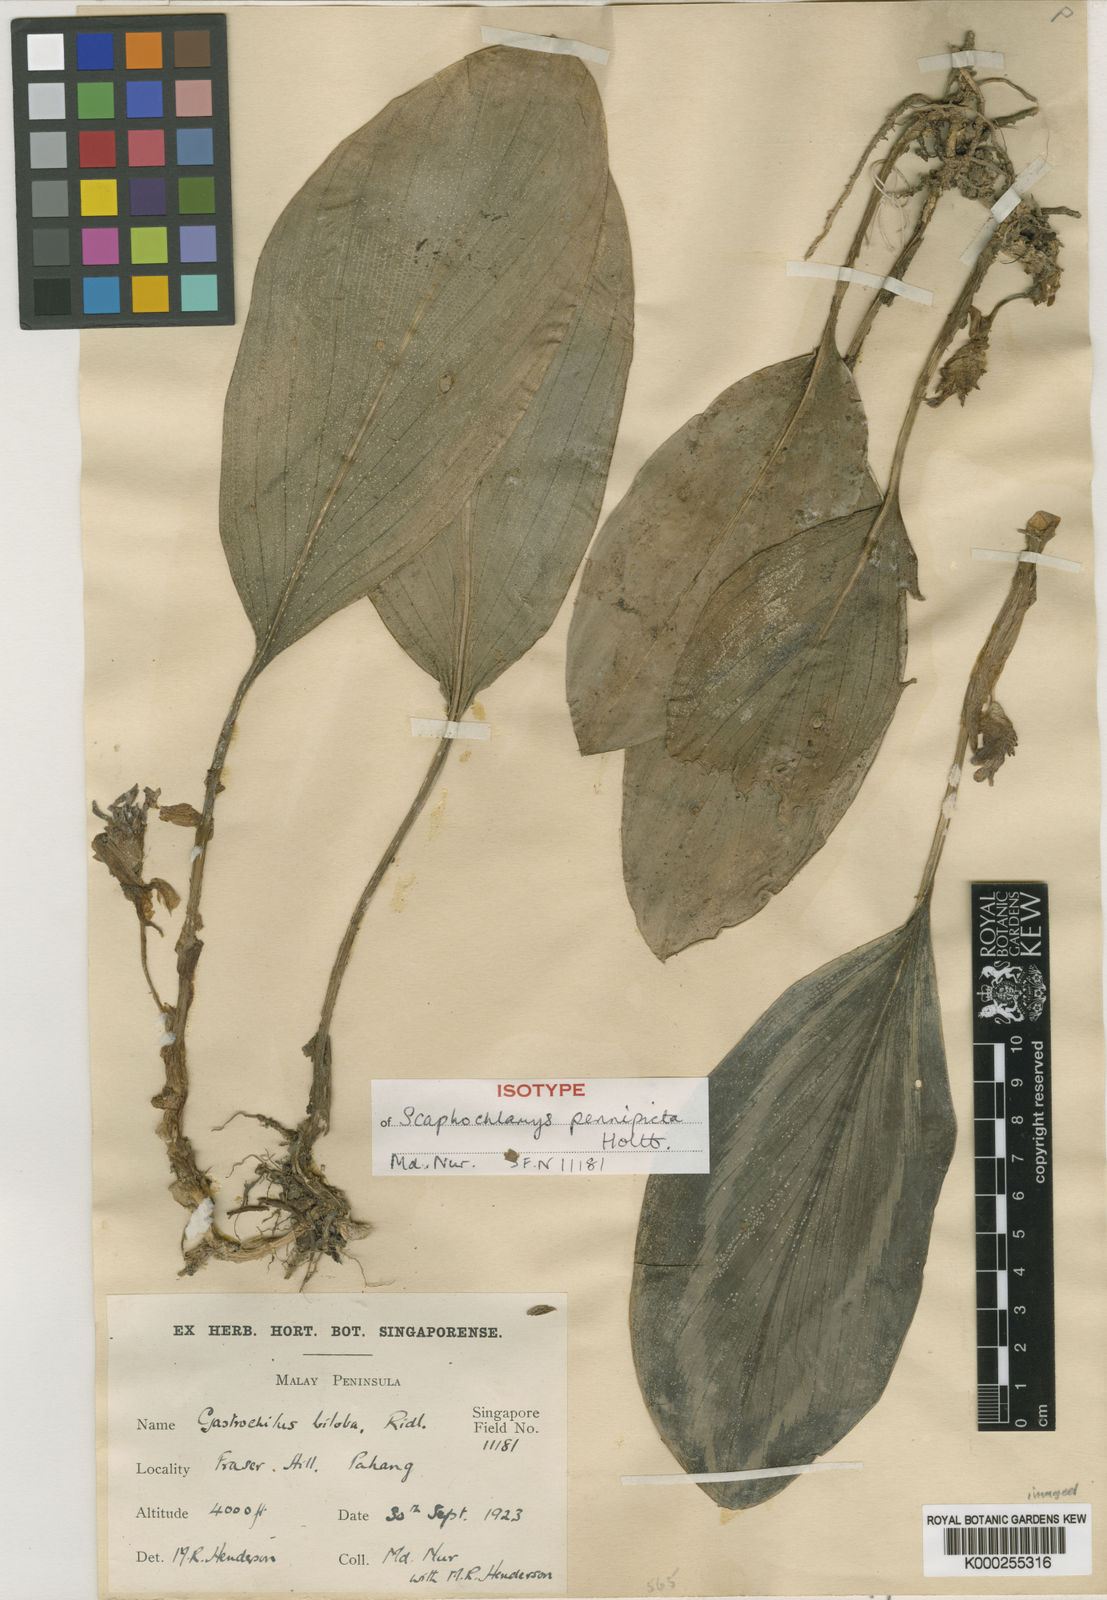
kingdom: Plantae
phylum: Tracheophyta
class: Liliopsida
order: Zingiberales
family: Zingiberaceae
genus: Scaphochlamys
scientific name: Scaphochlamys pennipicta
